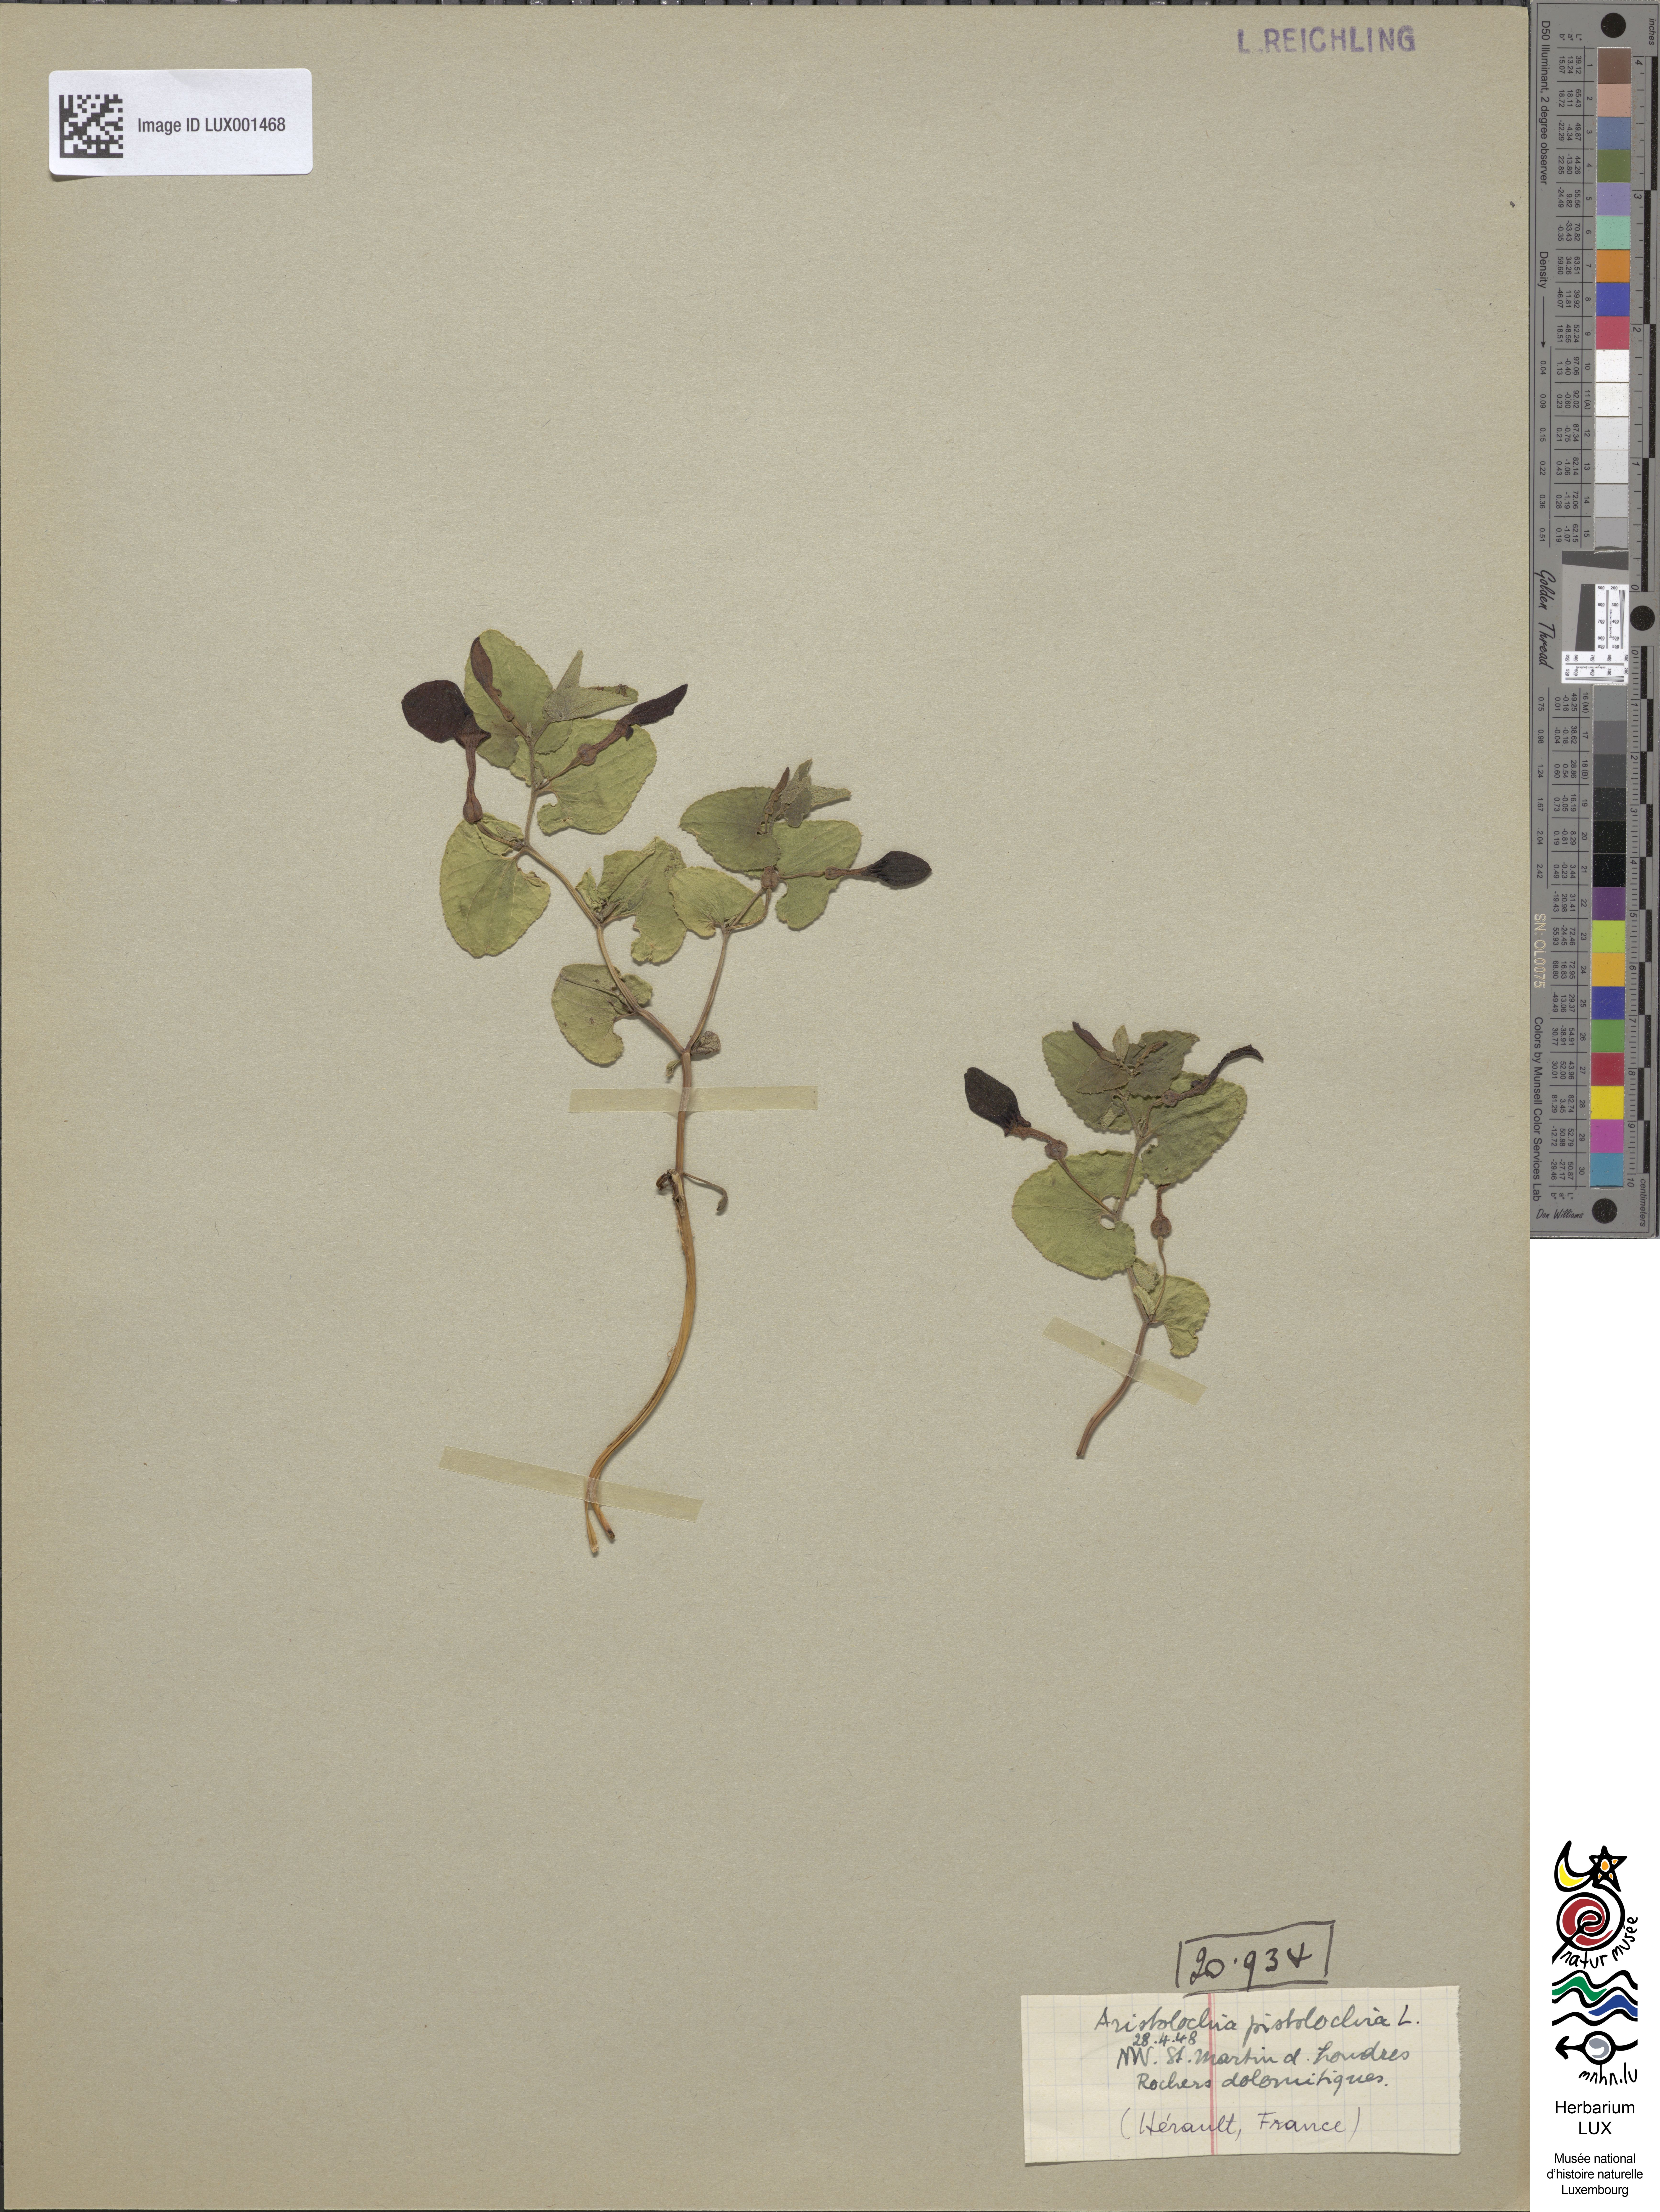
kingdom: Plantae
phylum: Tracheophyta
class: Magnoliopsida
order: Piperales
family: Aristolochiaceae
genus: Aristolochia
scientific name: Aristolochia pistolochia
